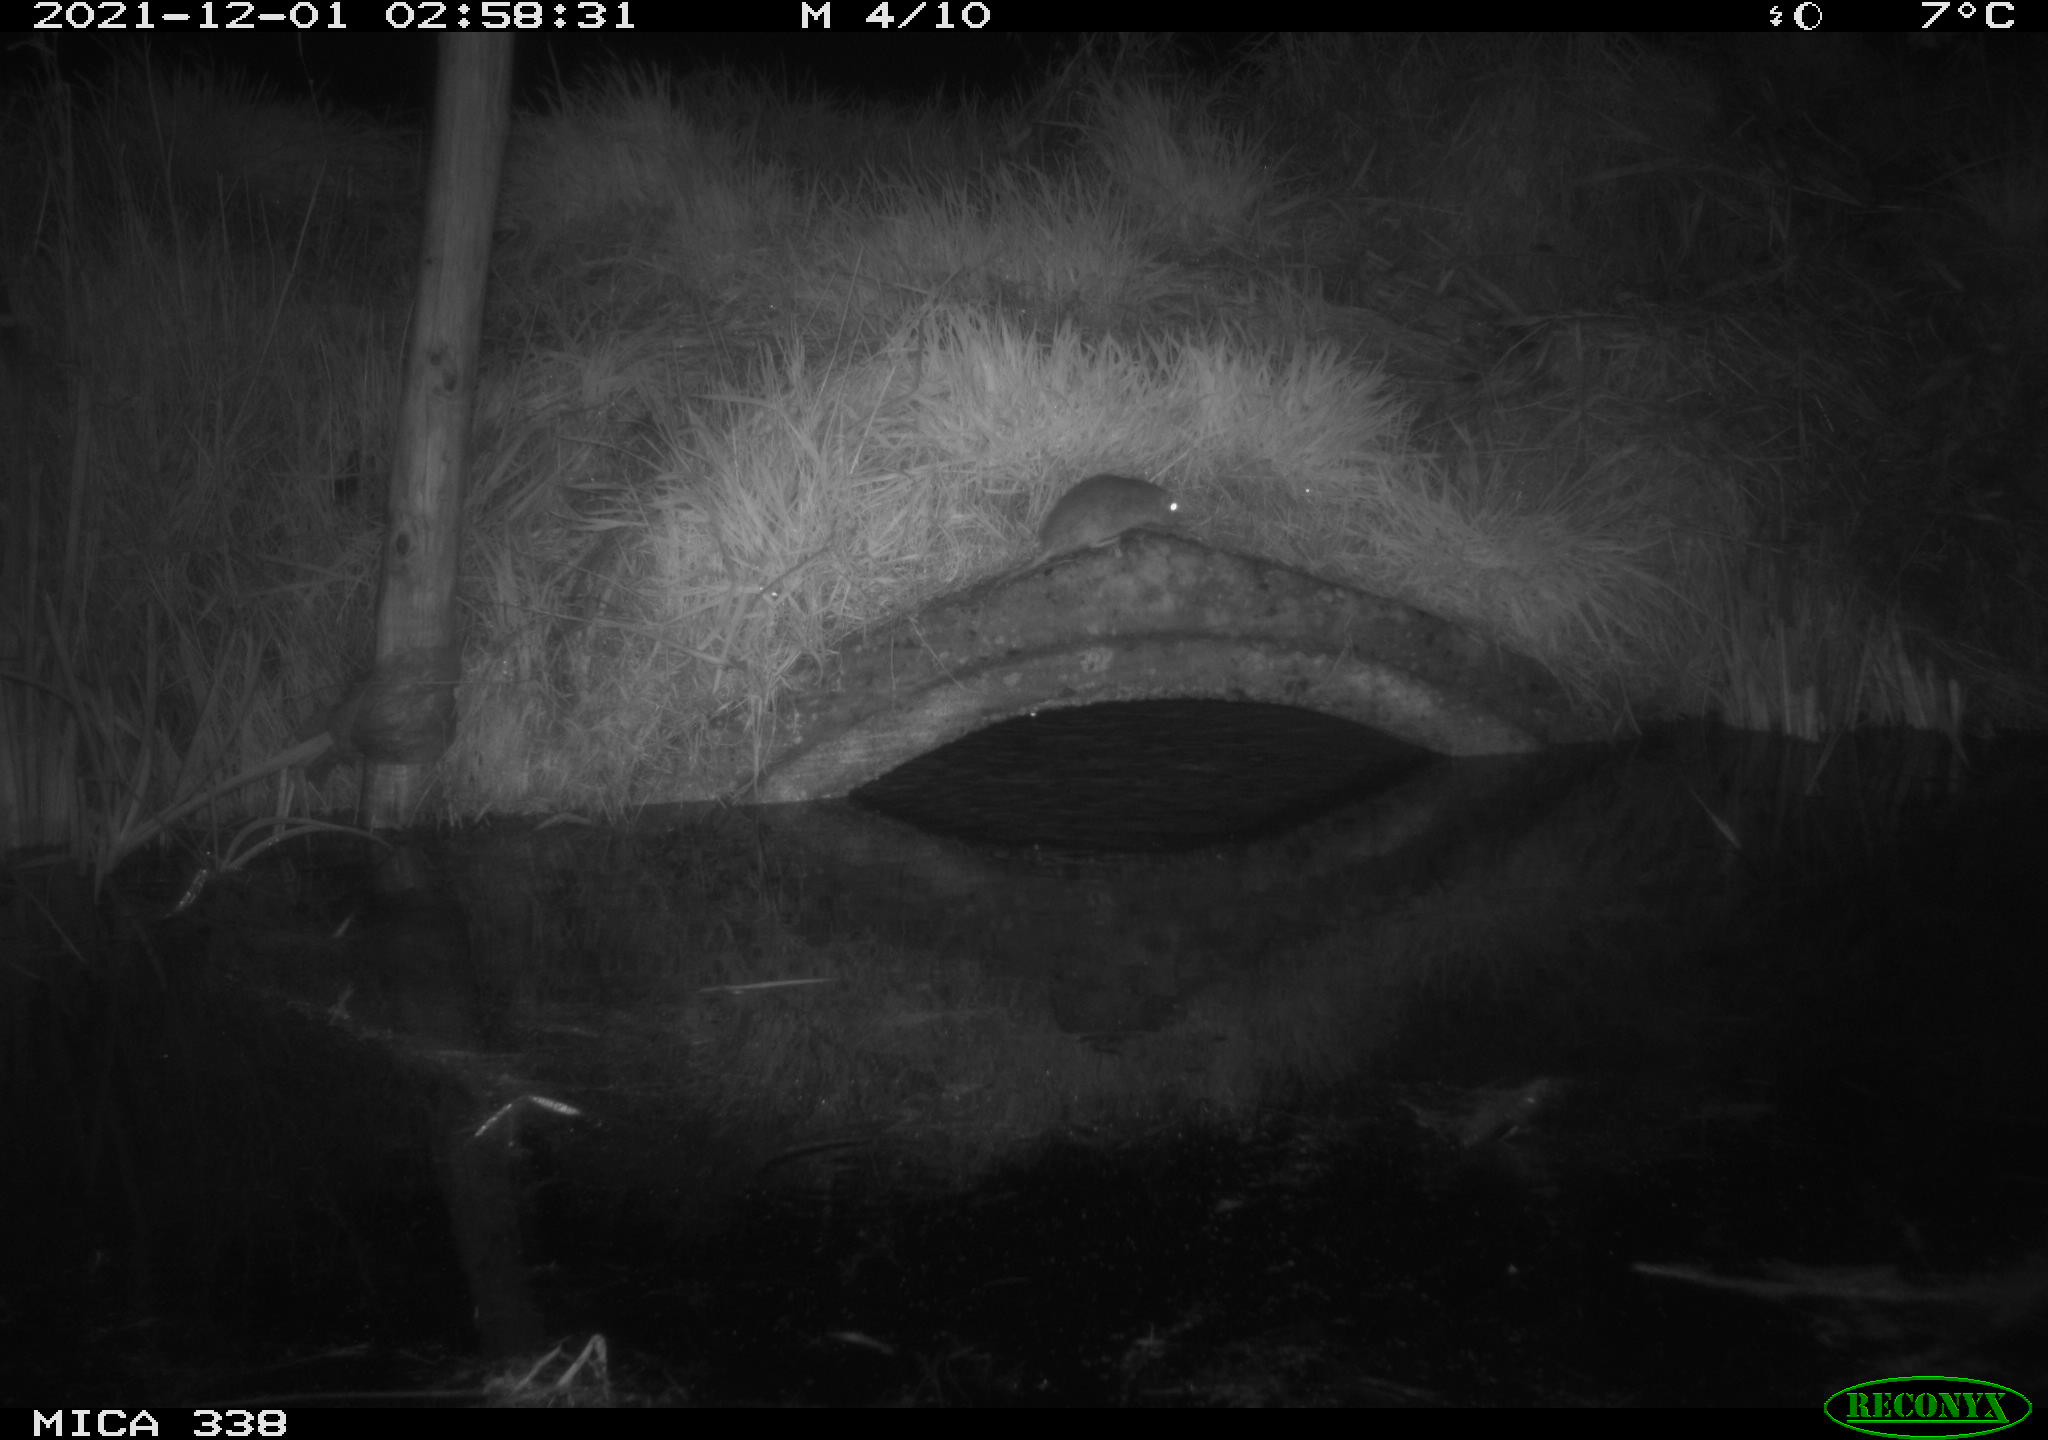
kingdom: Animalia
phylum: Chordata
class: Mammalia
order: Rodentia
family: Muridae
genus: Rattus
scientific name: Rattus norvegicus
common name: Brown rat
